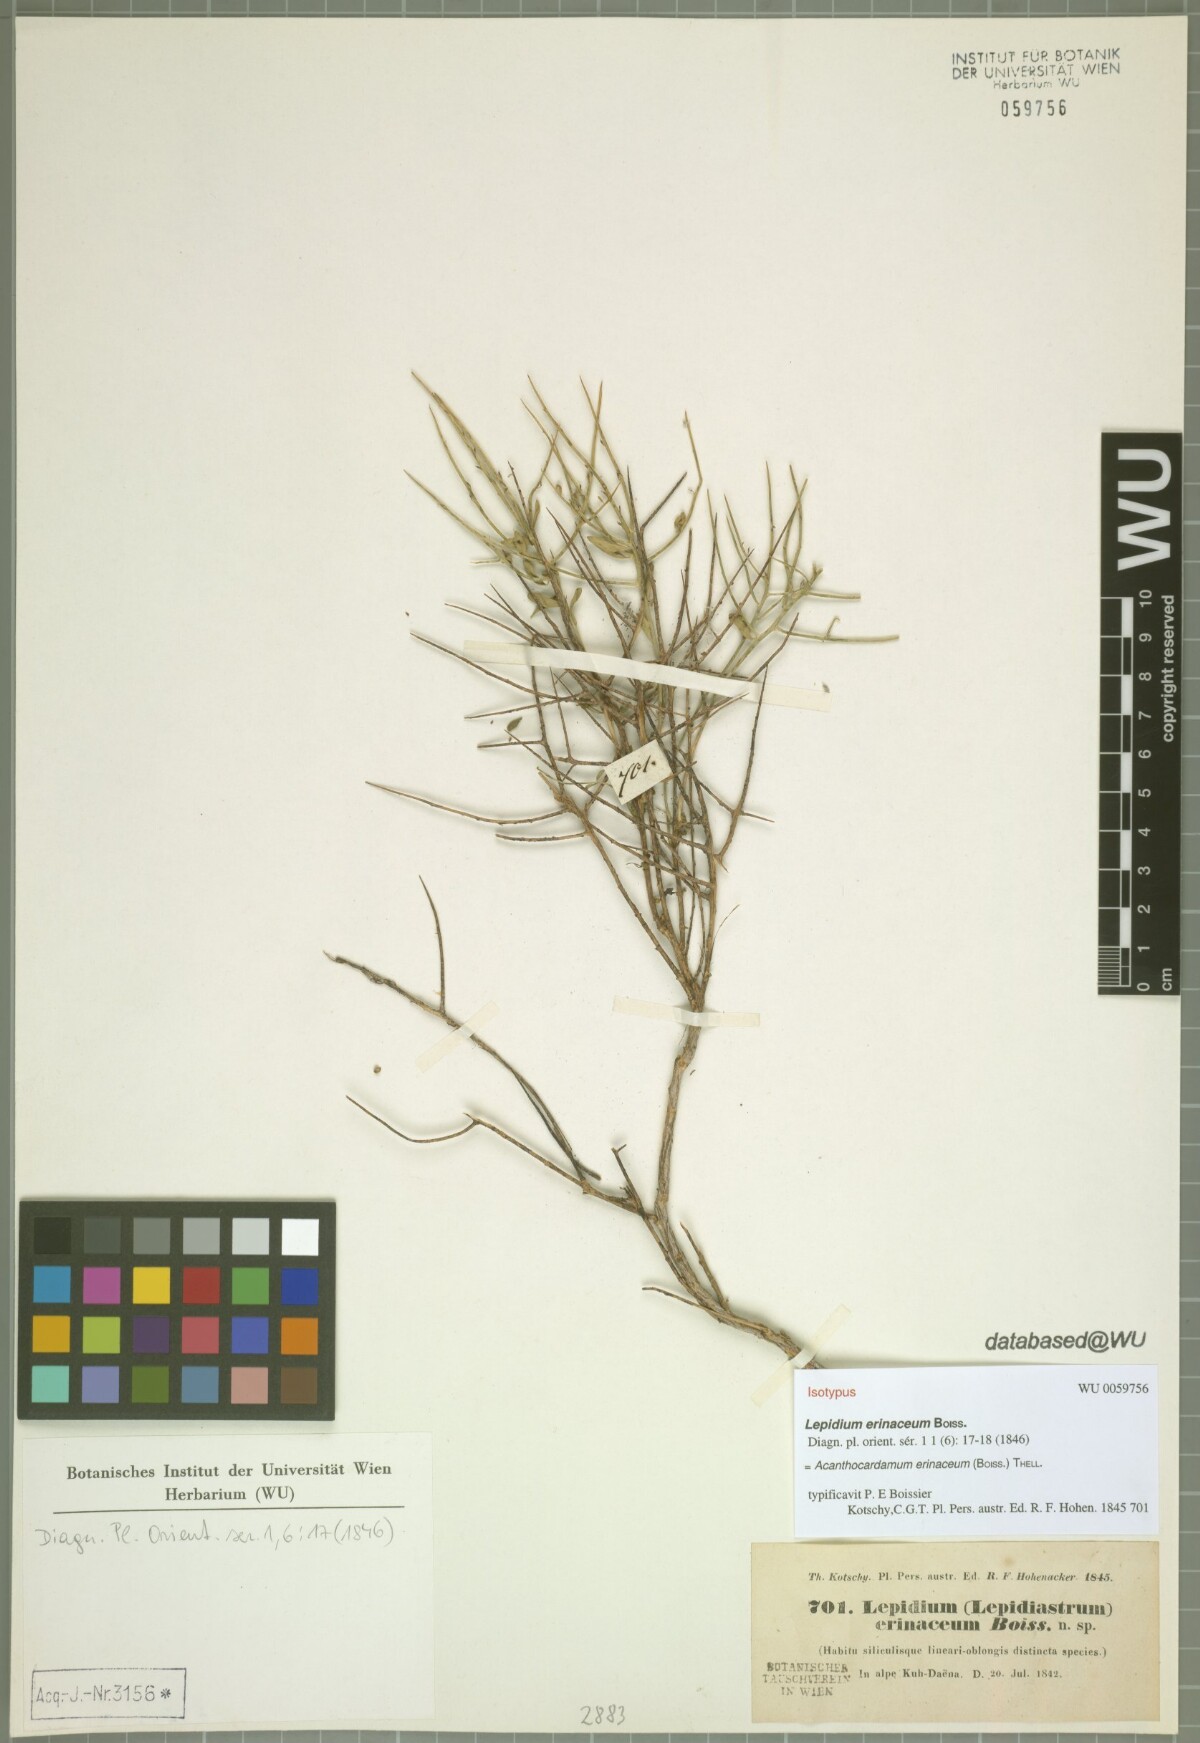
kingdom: Plantae
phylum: Tracheophyta
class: Magnoliopsida
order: Brassicales
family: Brassicaceae
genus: Aethionema
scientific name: Aethionema erinaceum
